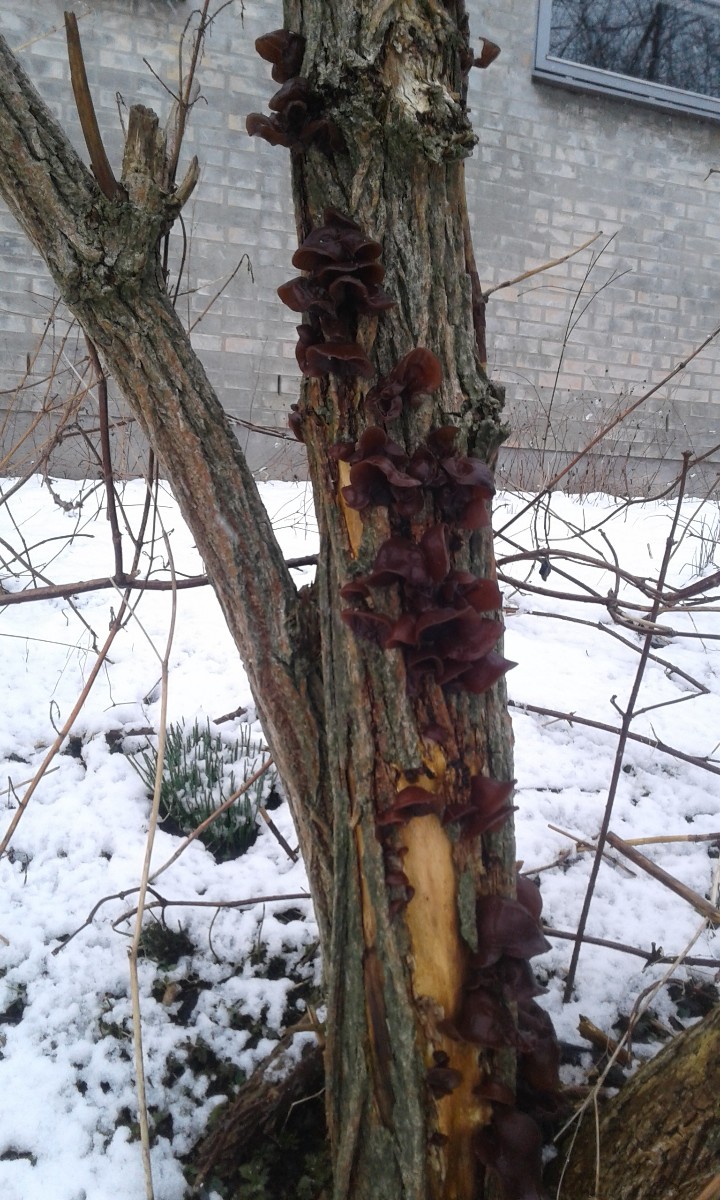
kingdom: Fungi
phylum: Basidiomycota
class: Agaricomycetes
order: Auriculariales
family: Auriculariaceae
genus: Auricularia
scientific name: Auricularia auricula-judae
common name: almindelig judasøre
